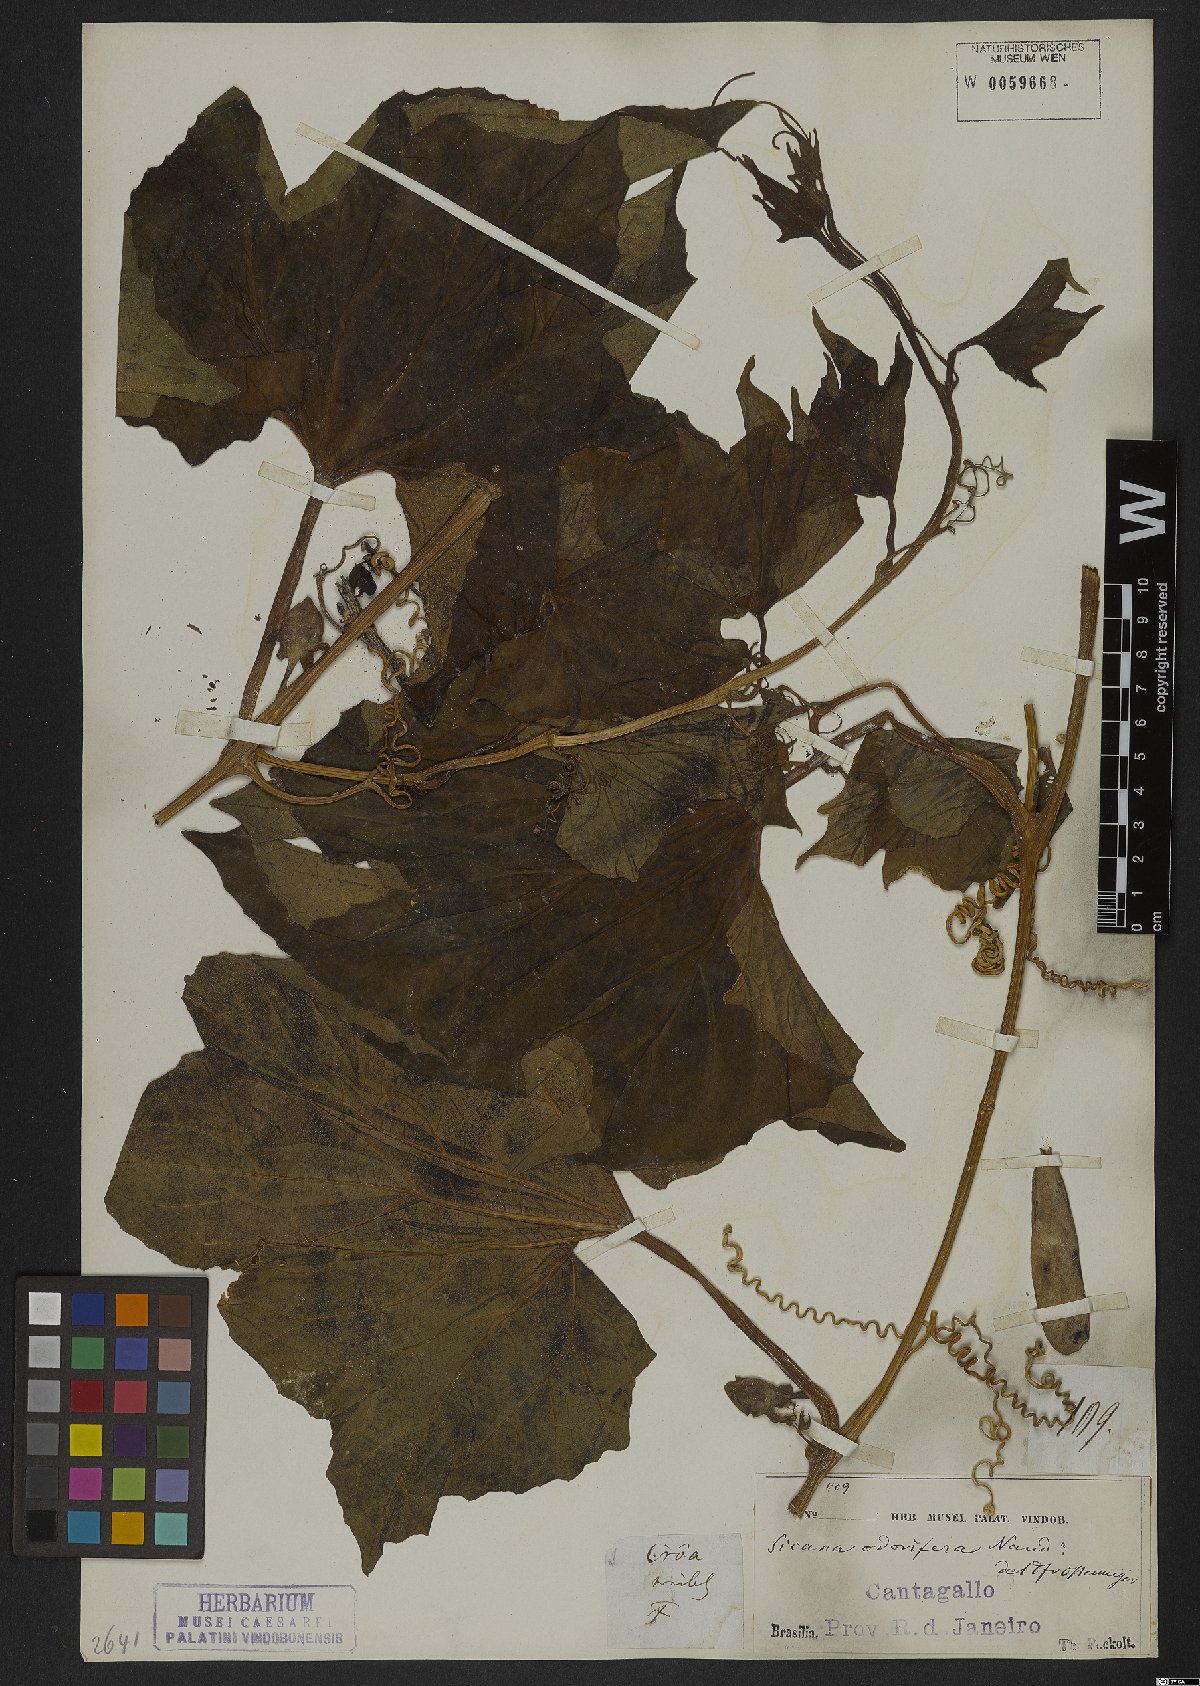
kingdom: Plantae
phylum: Tracheophyta
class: Magnoliopsida
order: Cucurbitales
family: Cucurbitaceae
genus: Sicana
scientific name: Sicana odorifera
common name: Casabanana
